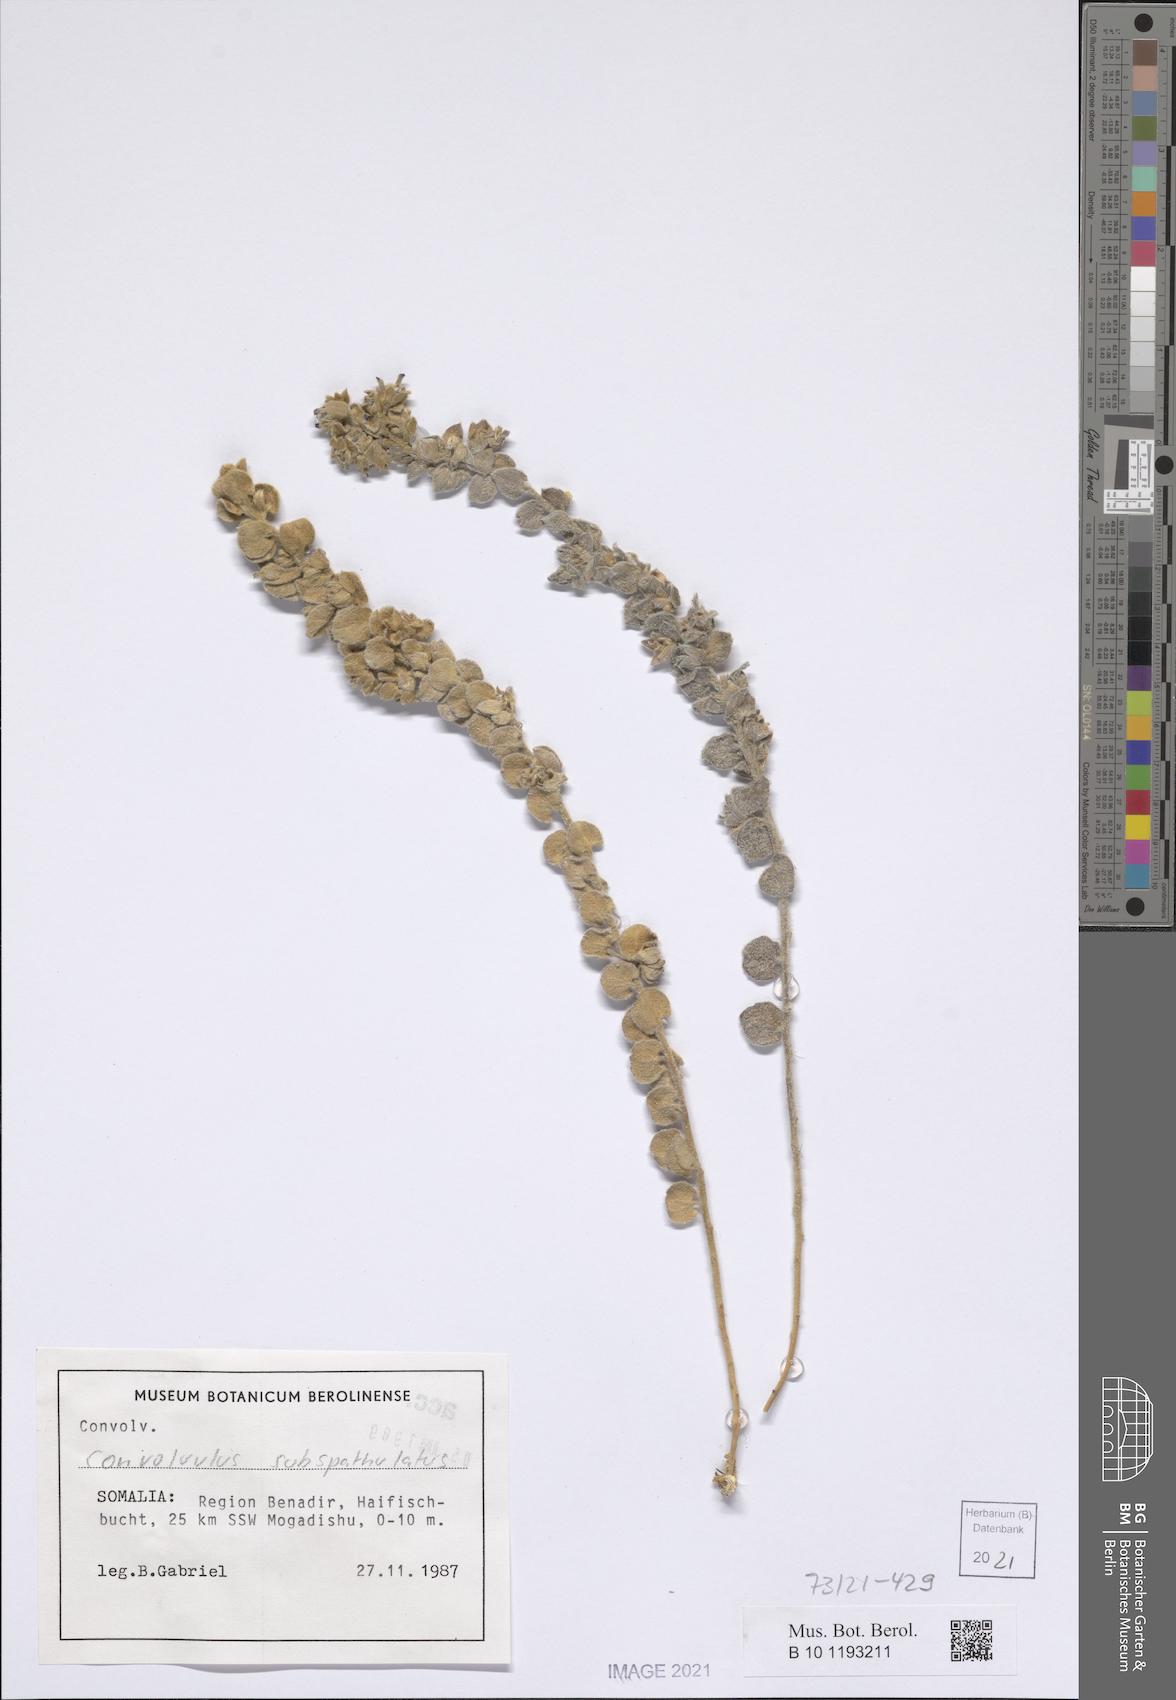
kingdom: Plantae
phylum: Tracheophyta
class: Magnoliopsida
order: Solanales
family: Convolvulaceae
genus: Convolvulus
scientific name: Convolvulus glomeratus
